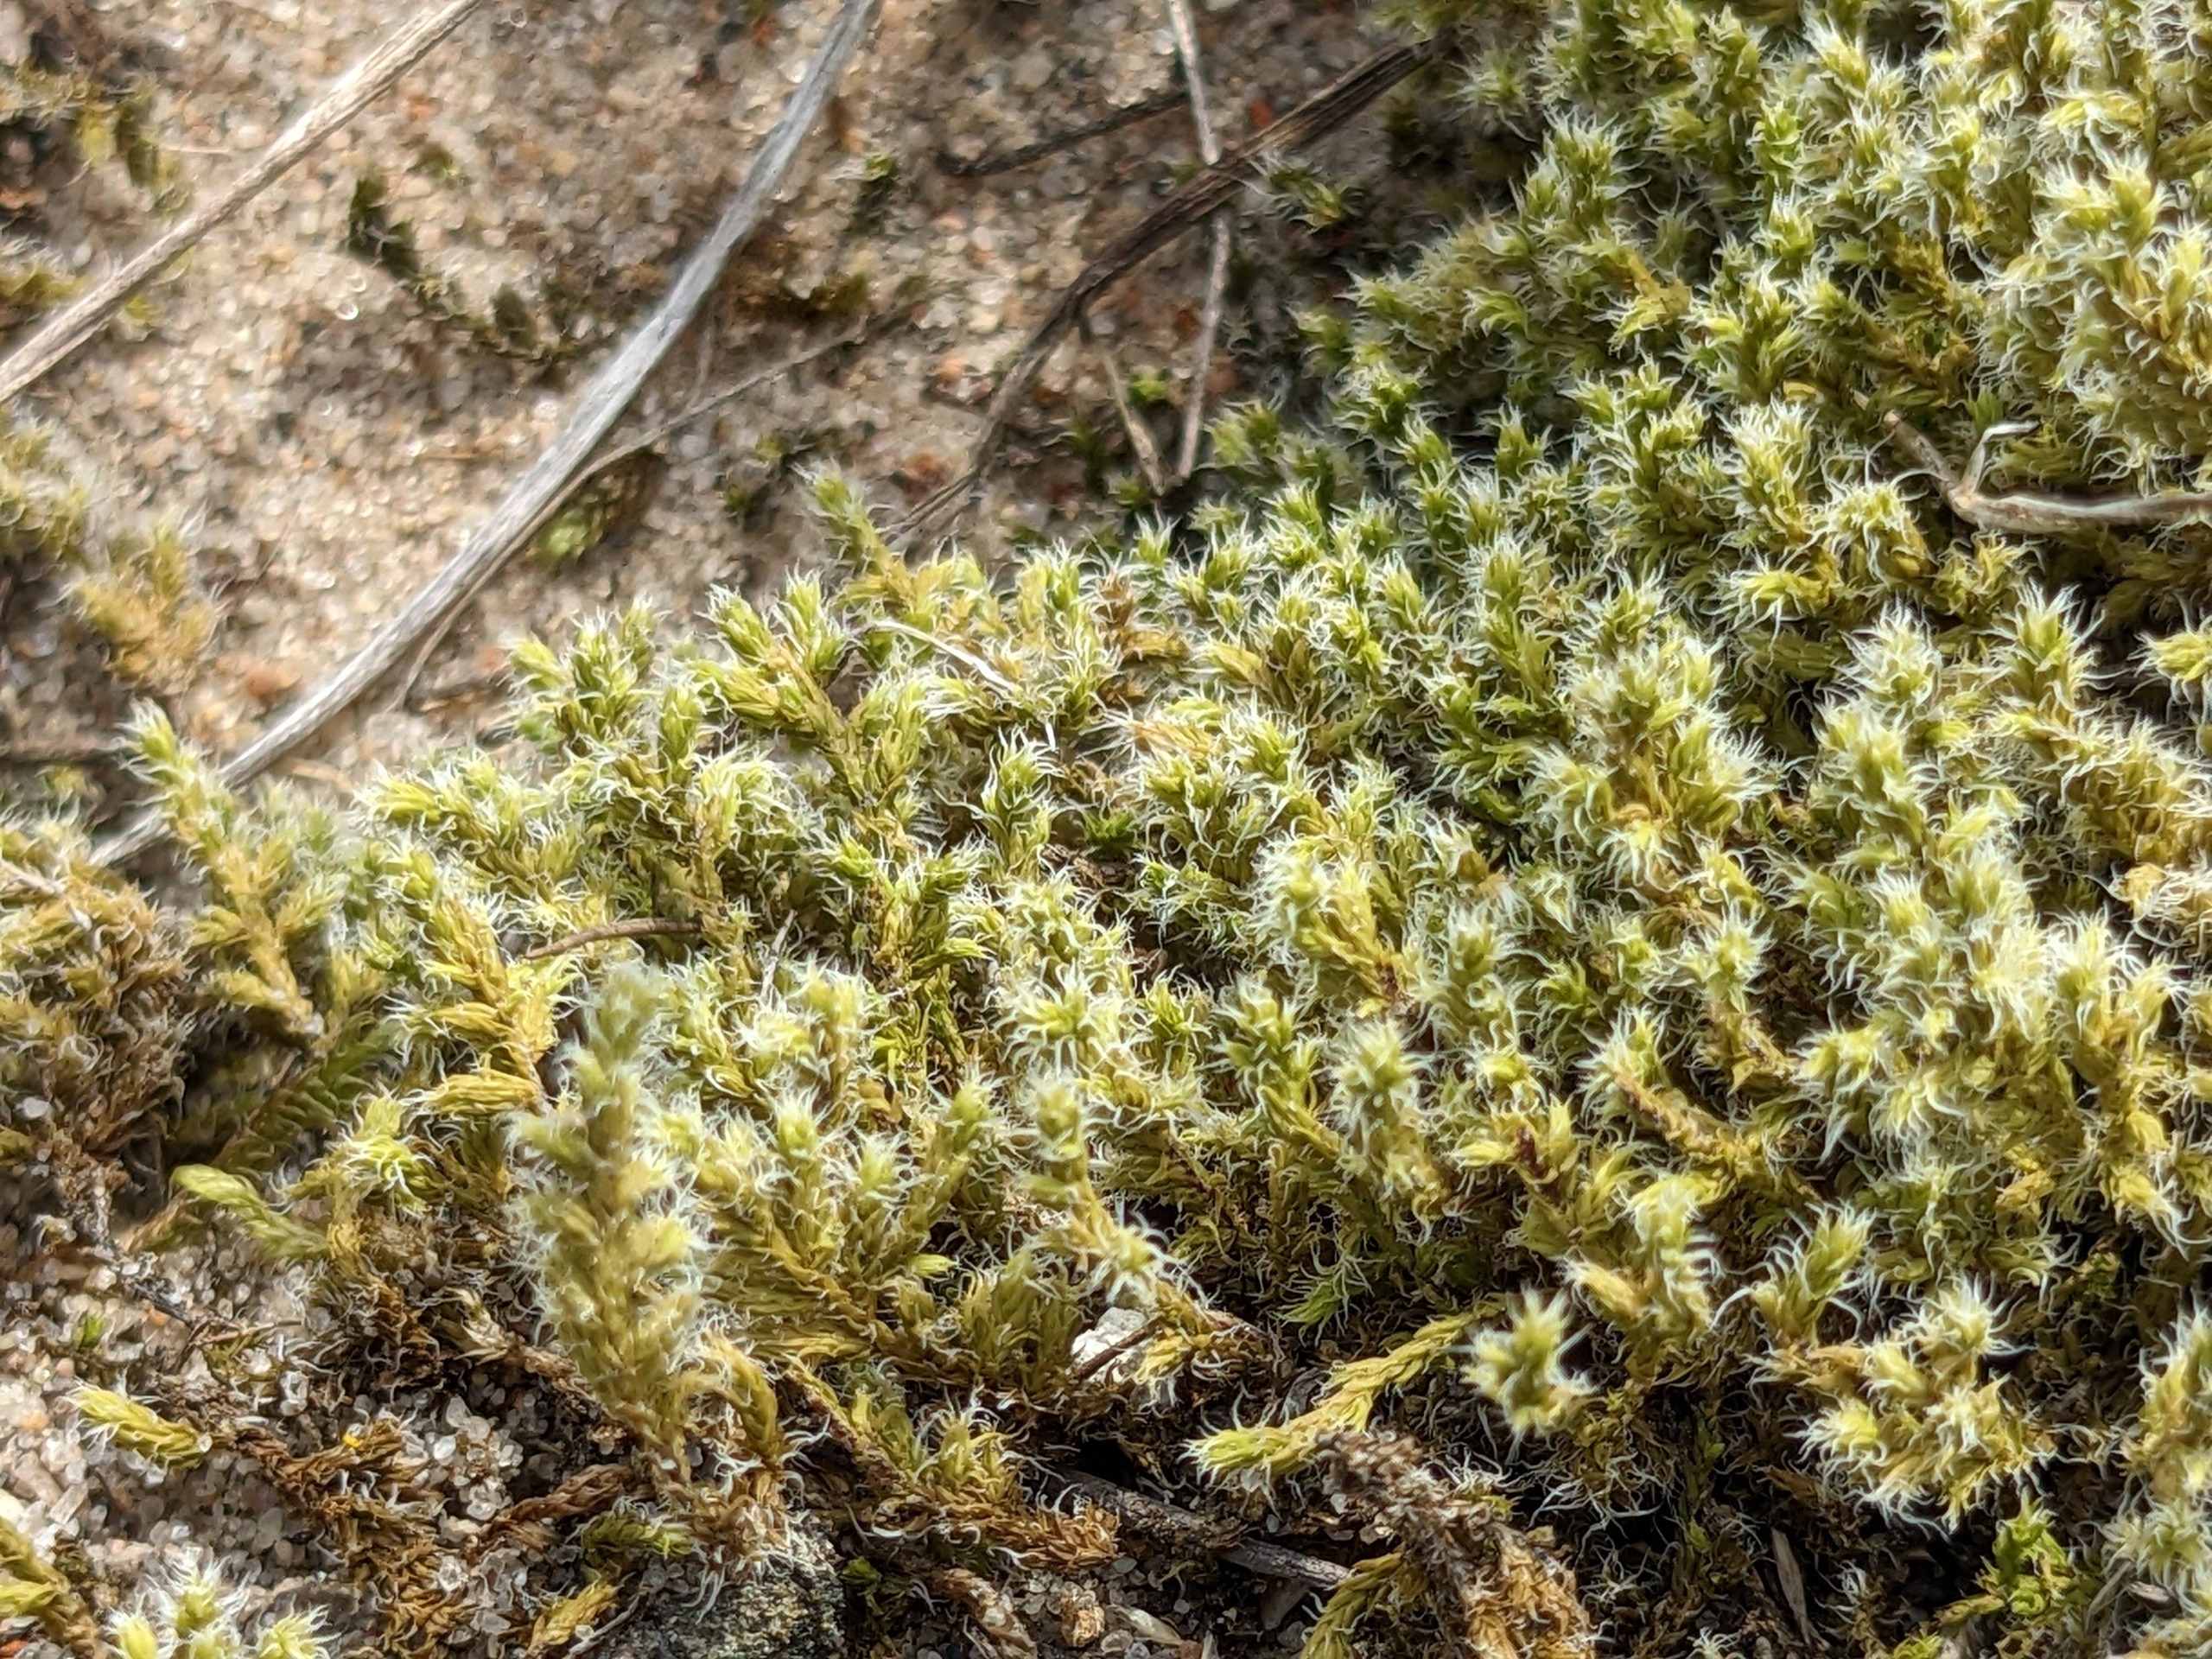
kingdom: Plantae
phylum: Bryophyta
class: Bryopsida
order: Grimmiales
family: Grimmiaceae
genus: Niphotrichum
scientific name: Niphotrichum elongatum
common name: Lang børstemos
